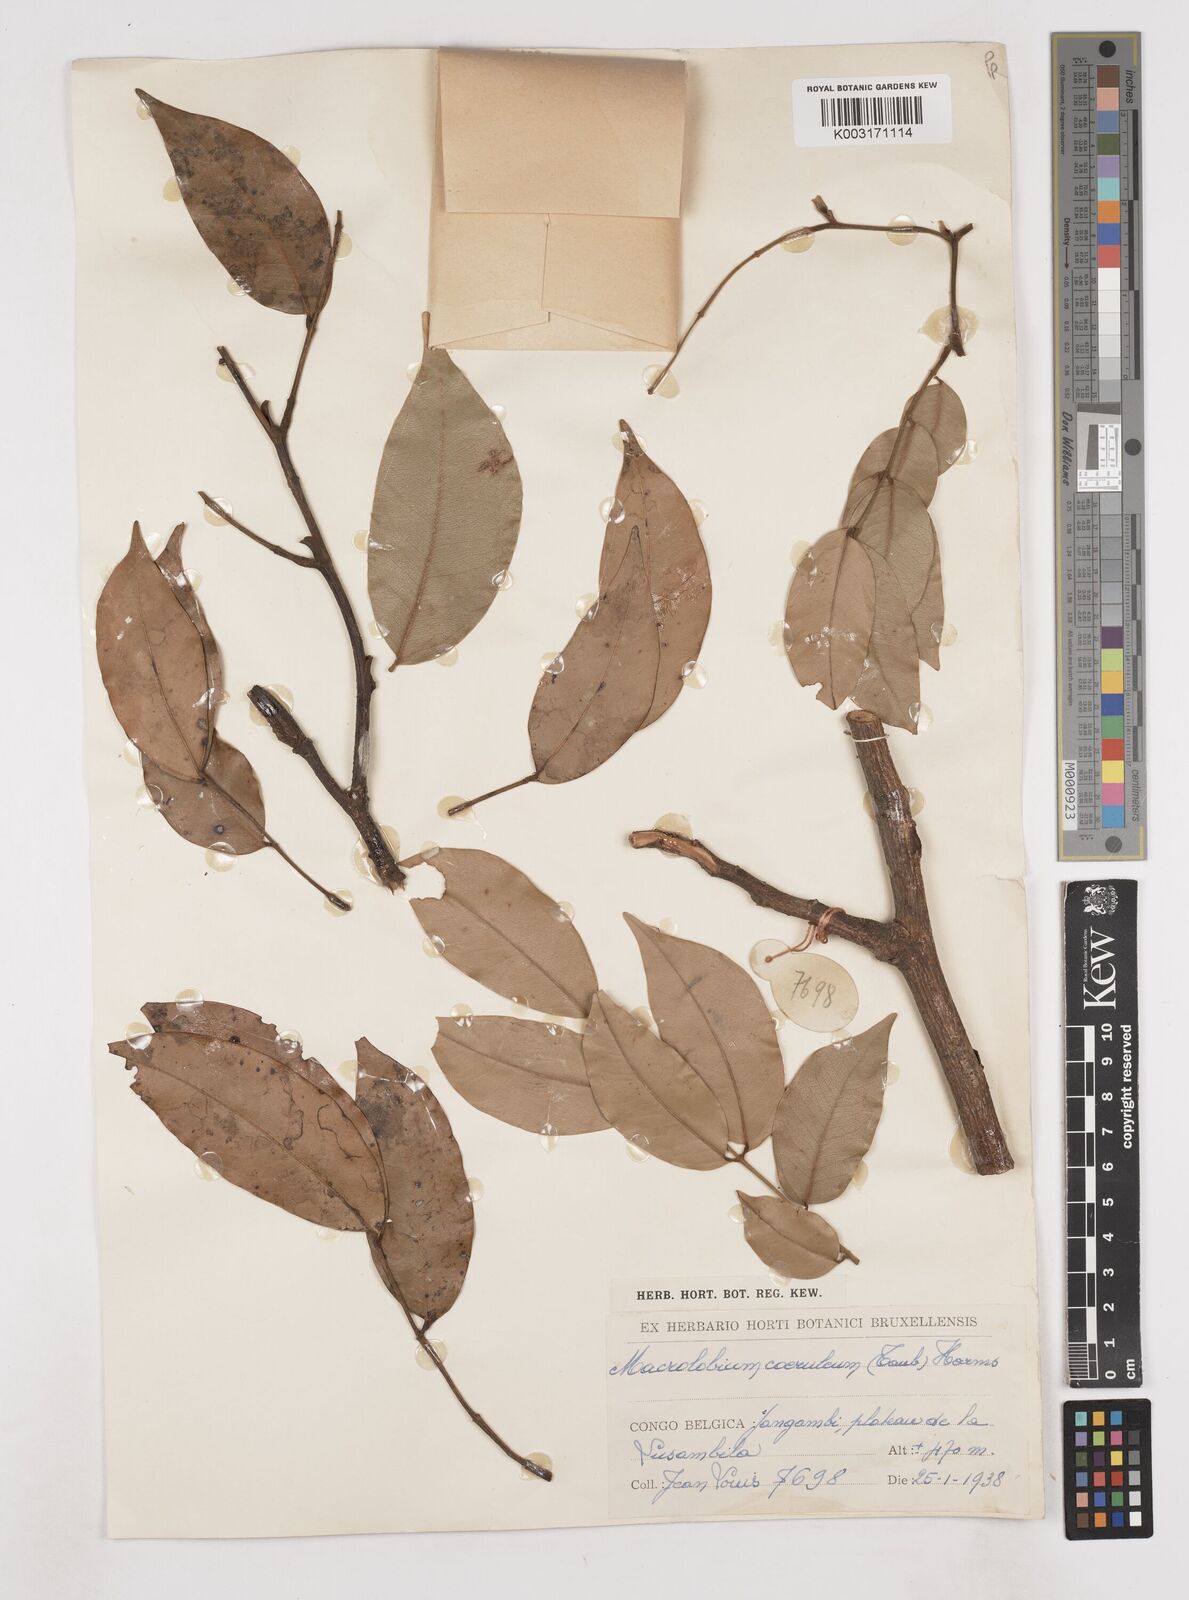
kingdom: Plantae
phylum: Tracheophyta
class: Magnoliopsida
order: Fabales
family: Fabaceae
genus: Paramacrolobium
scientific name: Paramacrolobium coeruleum
